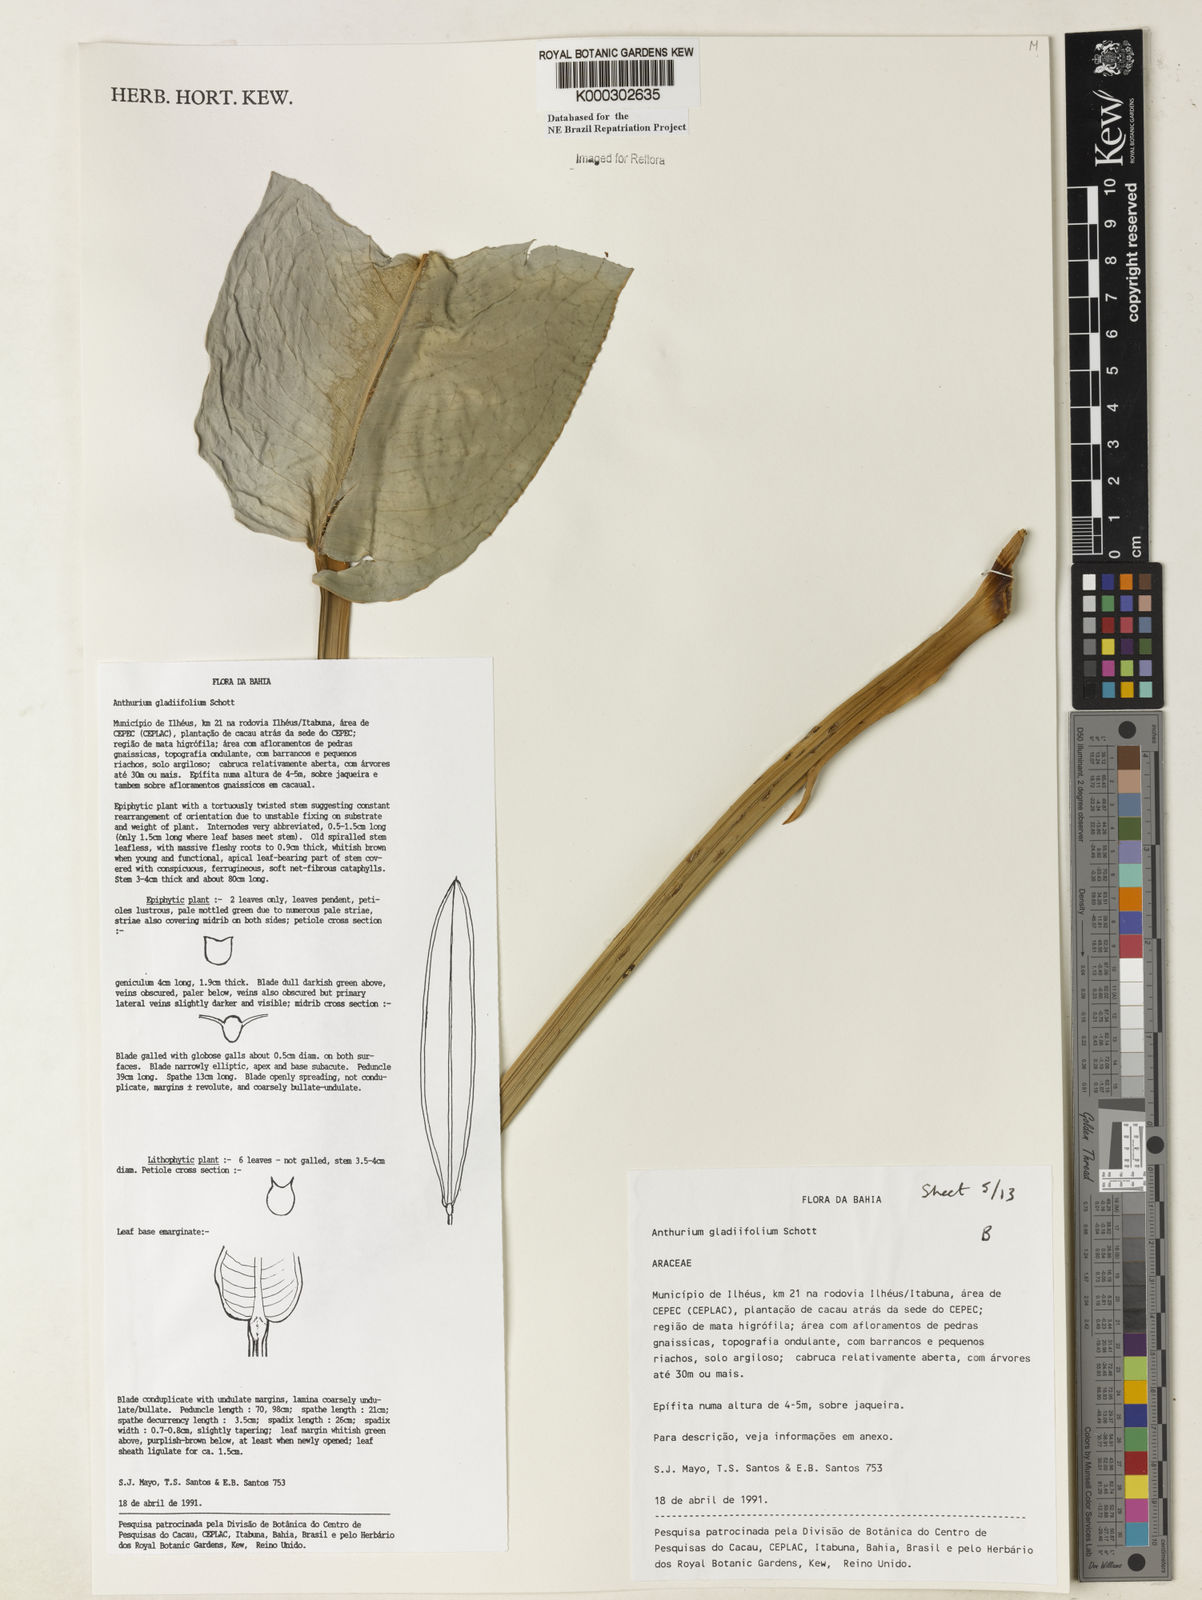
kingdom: Plantae
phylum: Tracheophyta
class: Liliopsida
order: Alismatales
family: Araceae
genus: Anthurium
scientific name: Anthurium gladiifolium
